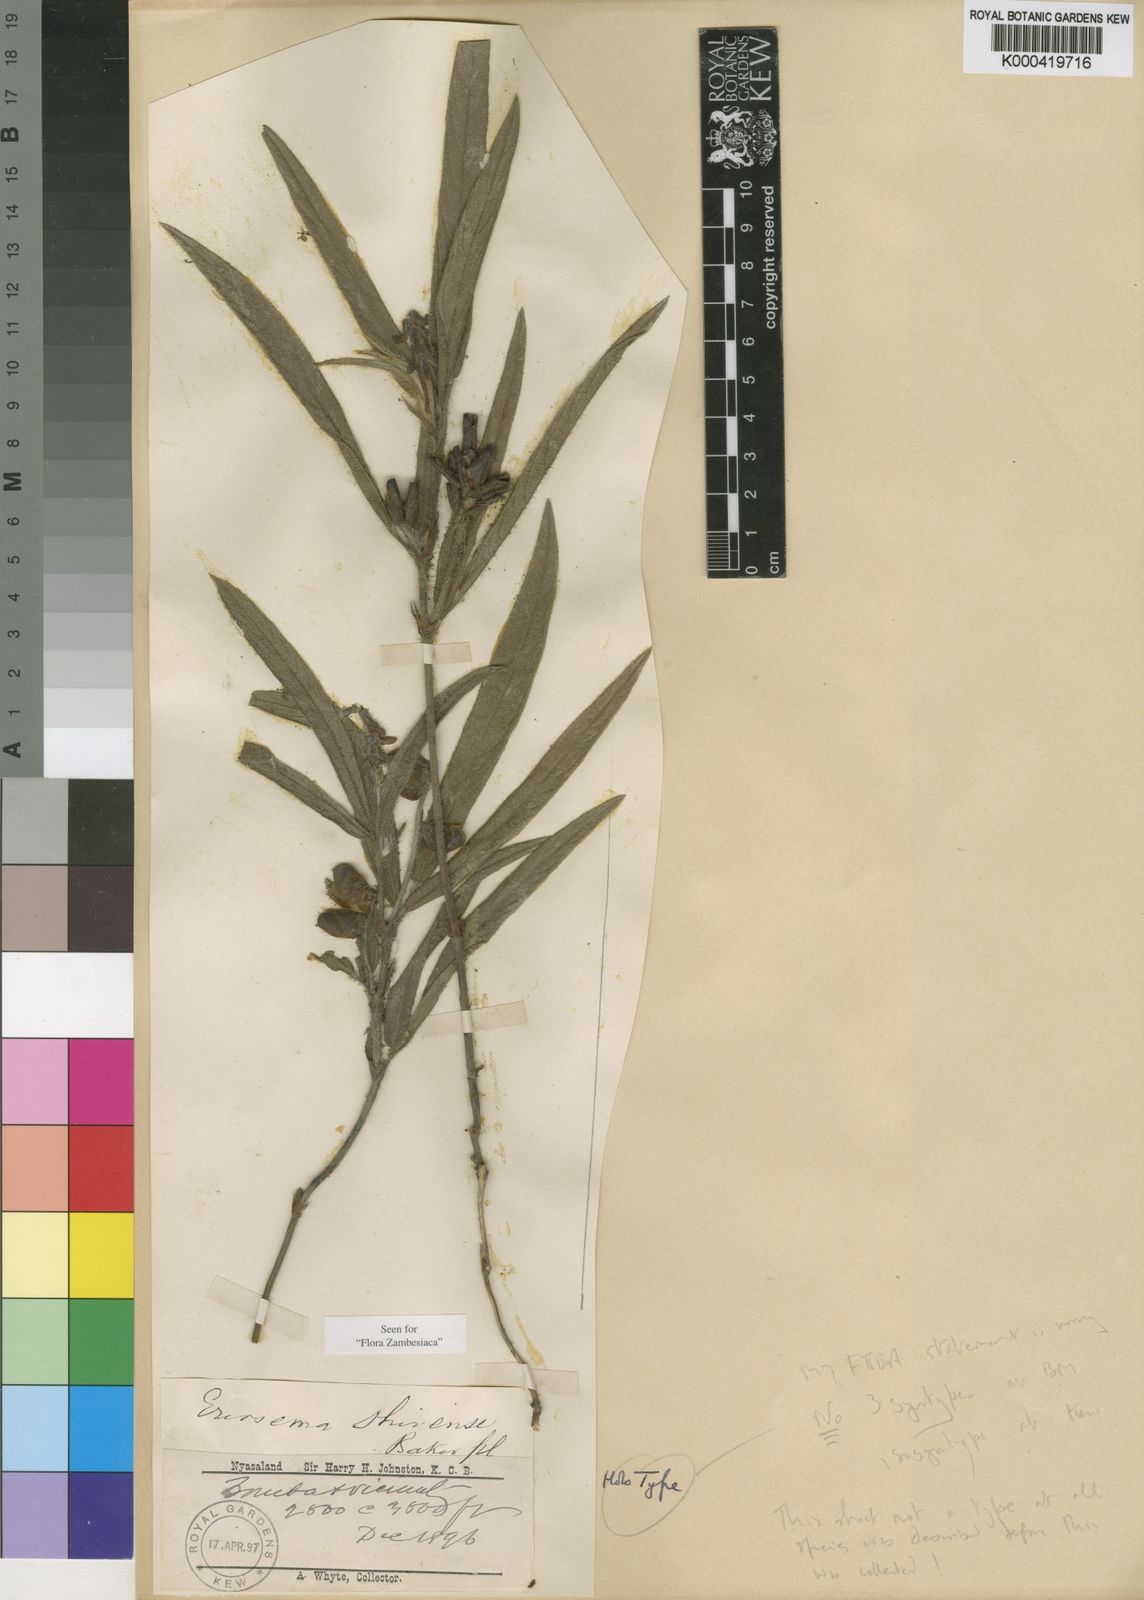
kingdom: Plantae
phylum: Tracheophyta
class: Magnoliopsida
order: Fabales
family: Fabaceae
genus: Eriosema
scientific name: Eriosema shirense
